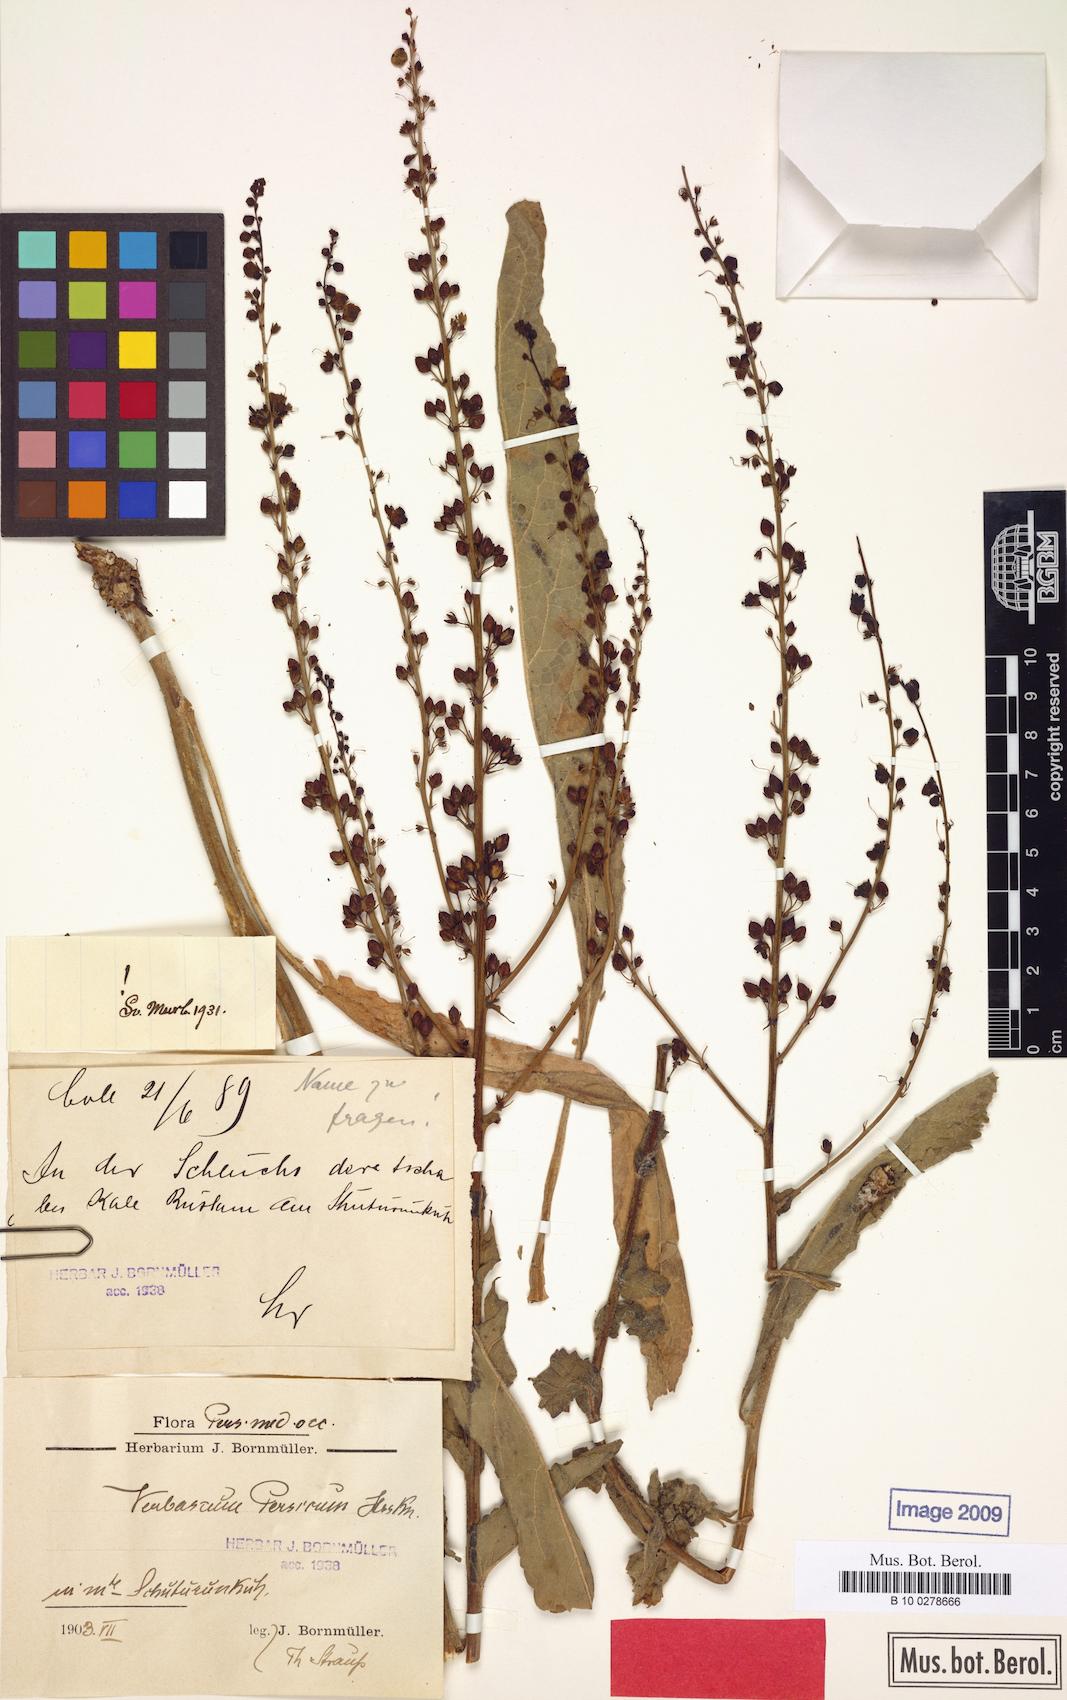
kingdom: Plantae
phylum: Tracheophyta
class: Magnoliopsida
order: Lamiales
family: Scrophulariaceae
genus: Verbascum
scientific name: Verbascum haussknechtianum
